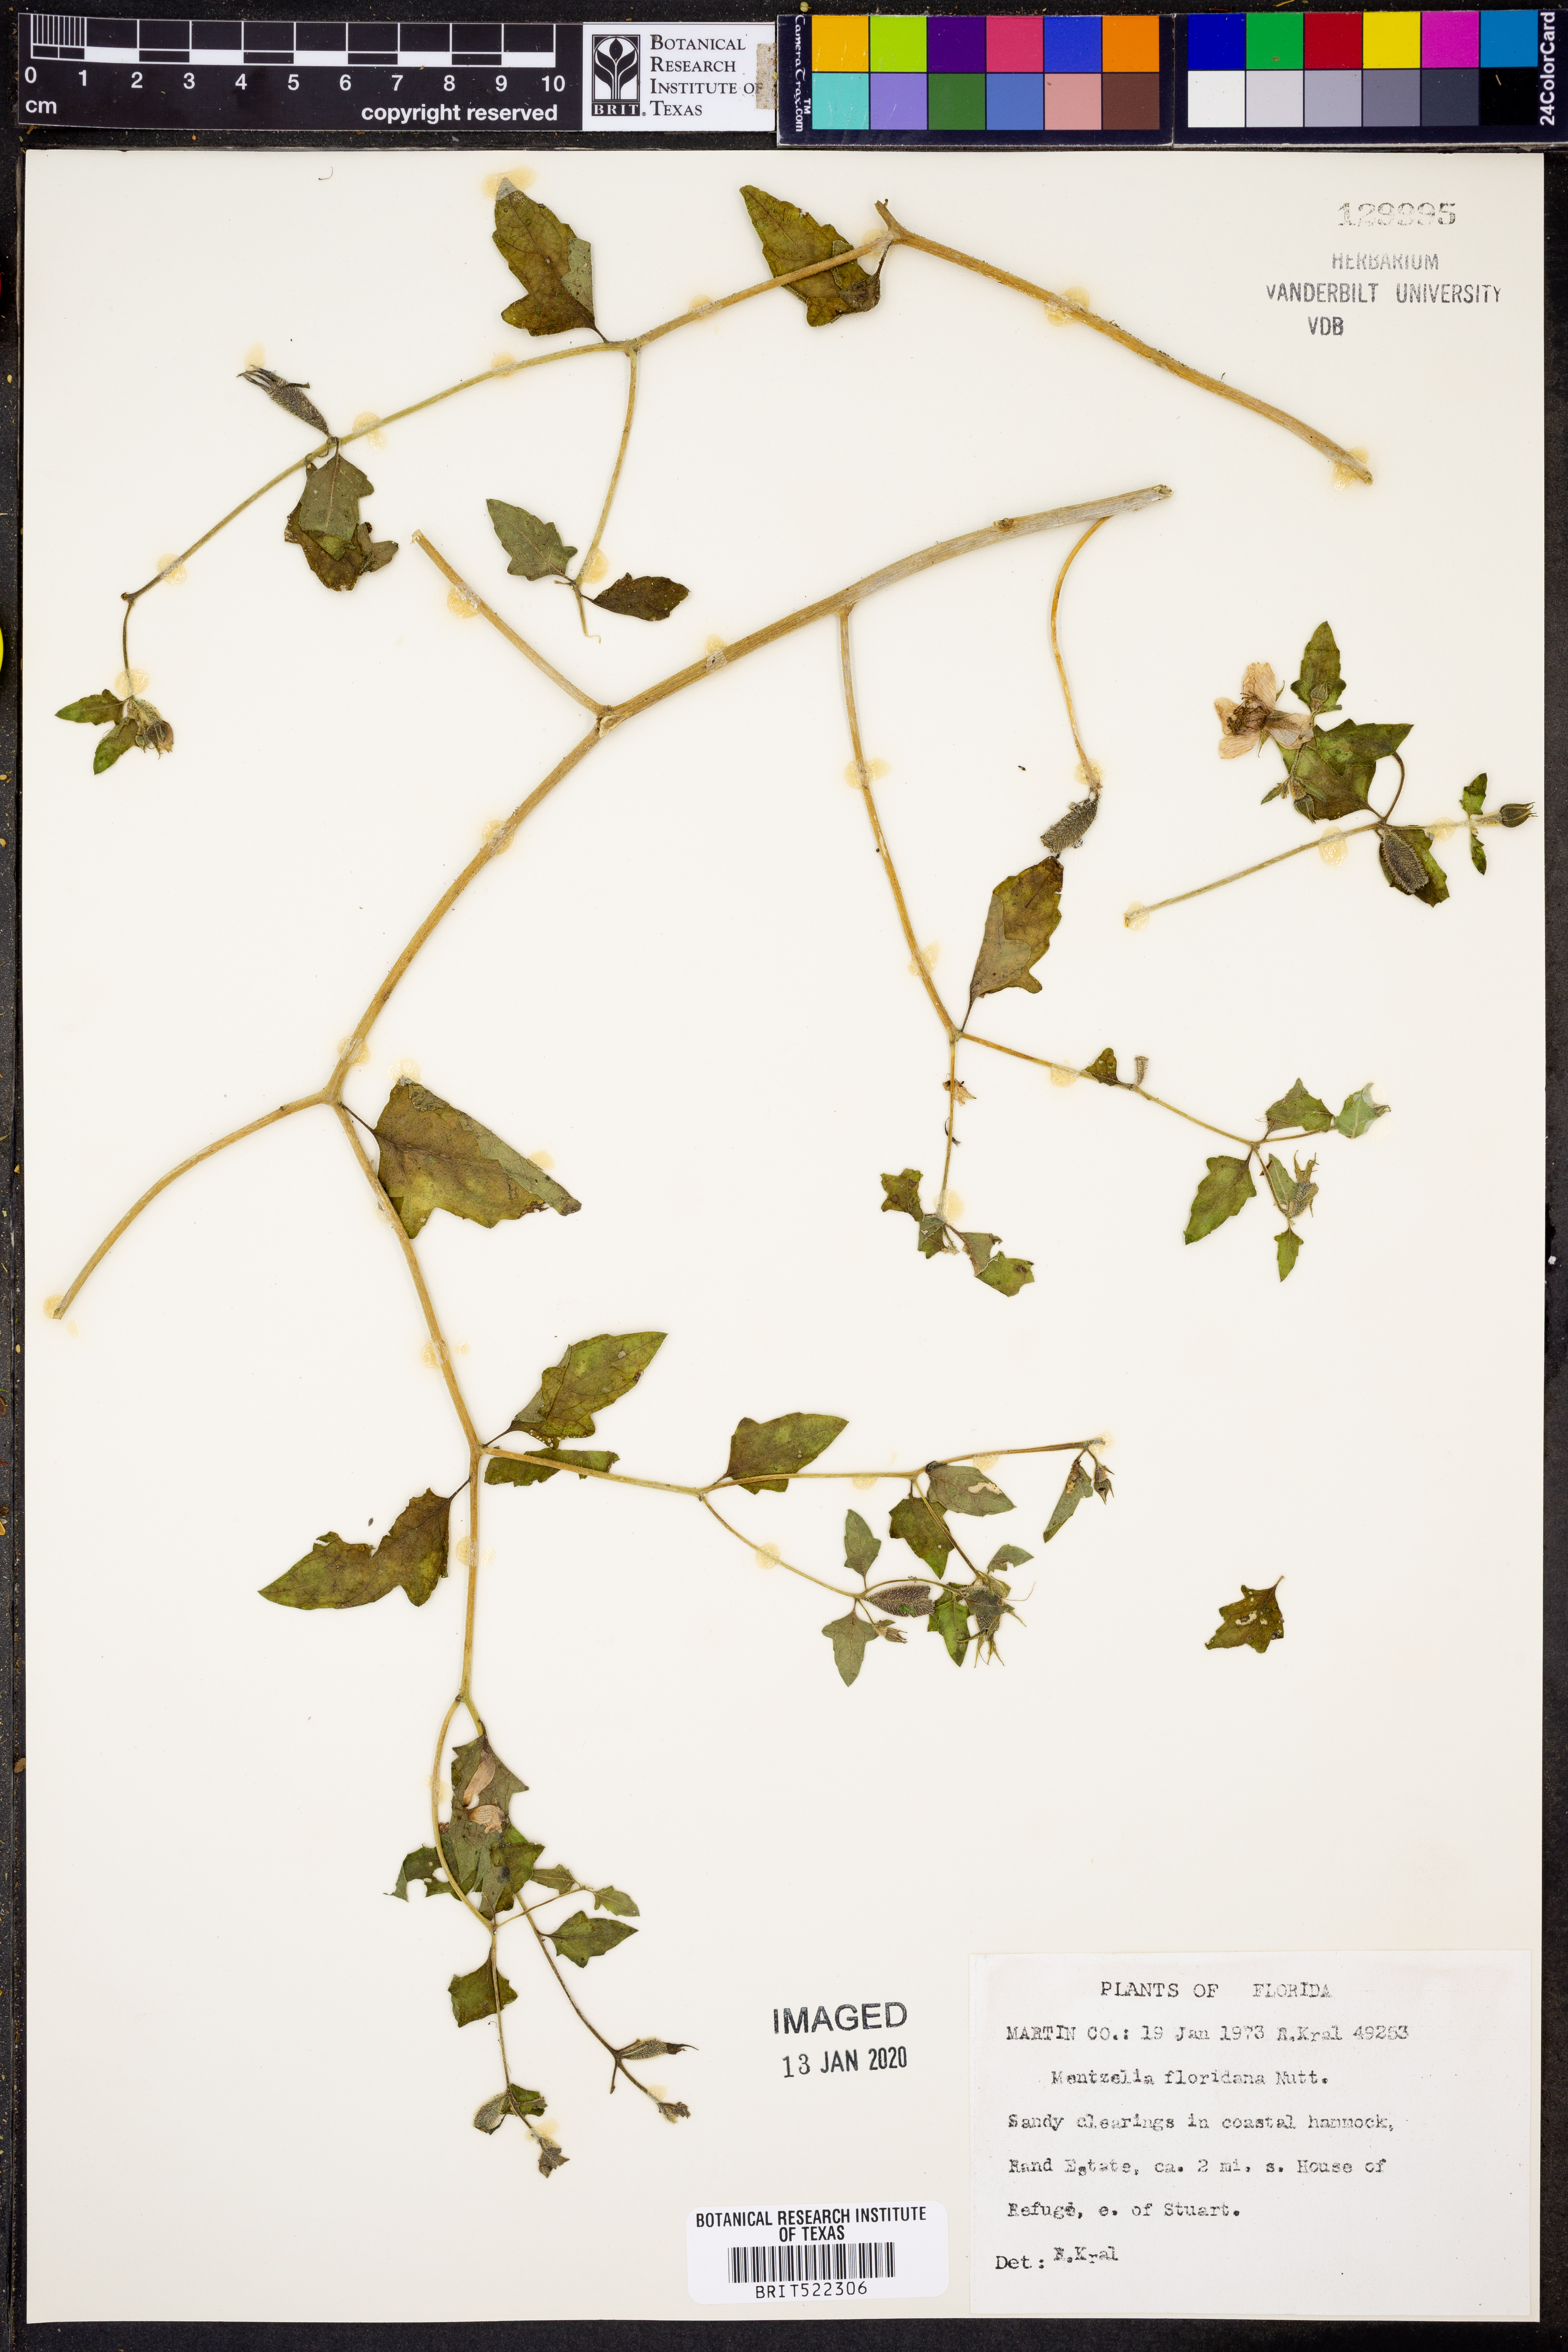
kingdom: Plantae
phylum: Tracheophyta
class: Magnoliopsida
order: Cornales
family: Loasaceae
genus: Mentzelia
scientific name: Mentzelia floridana
